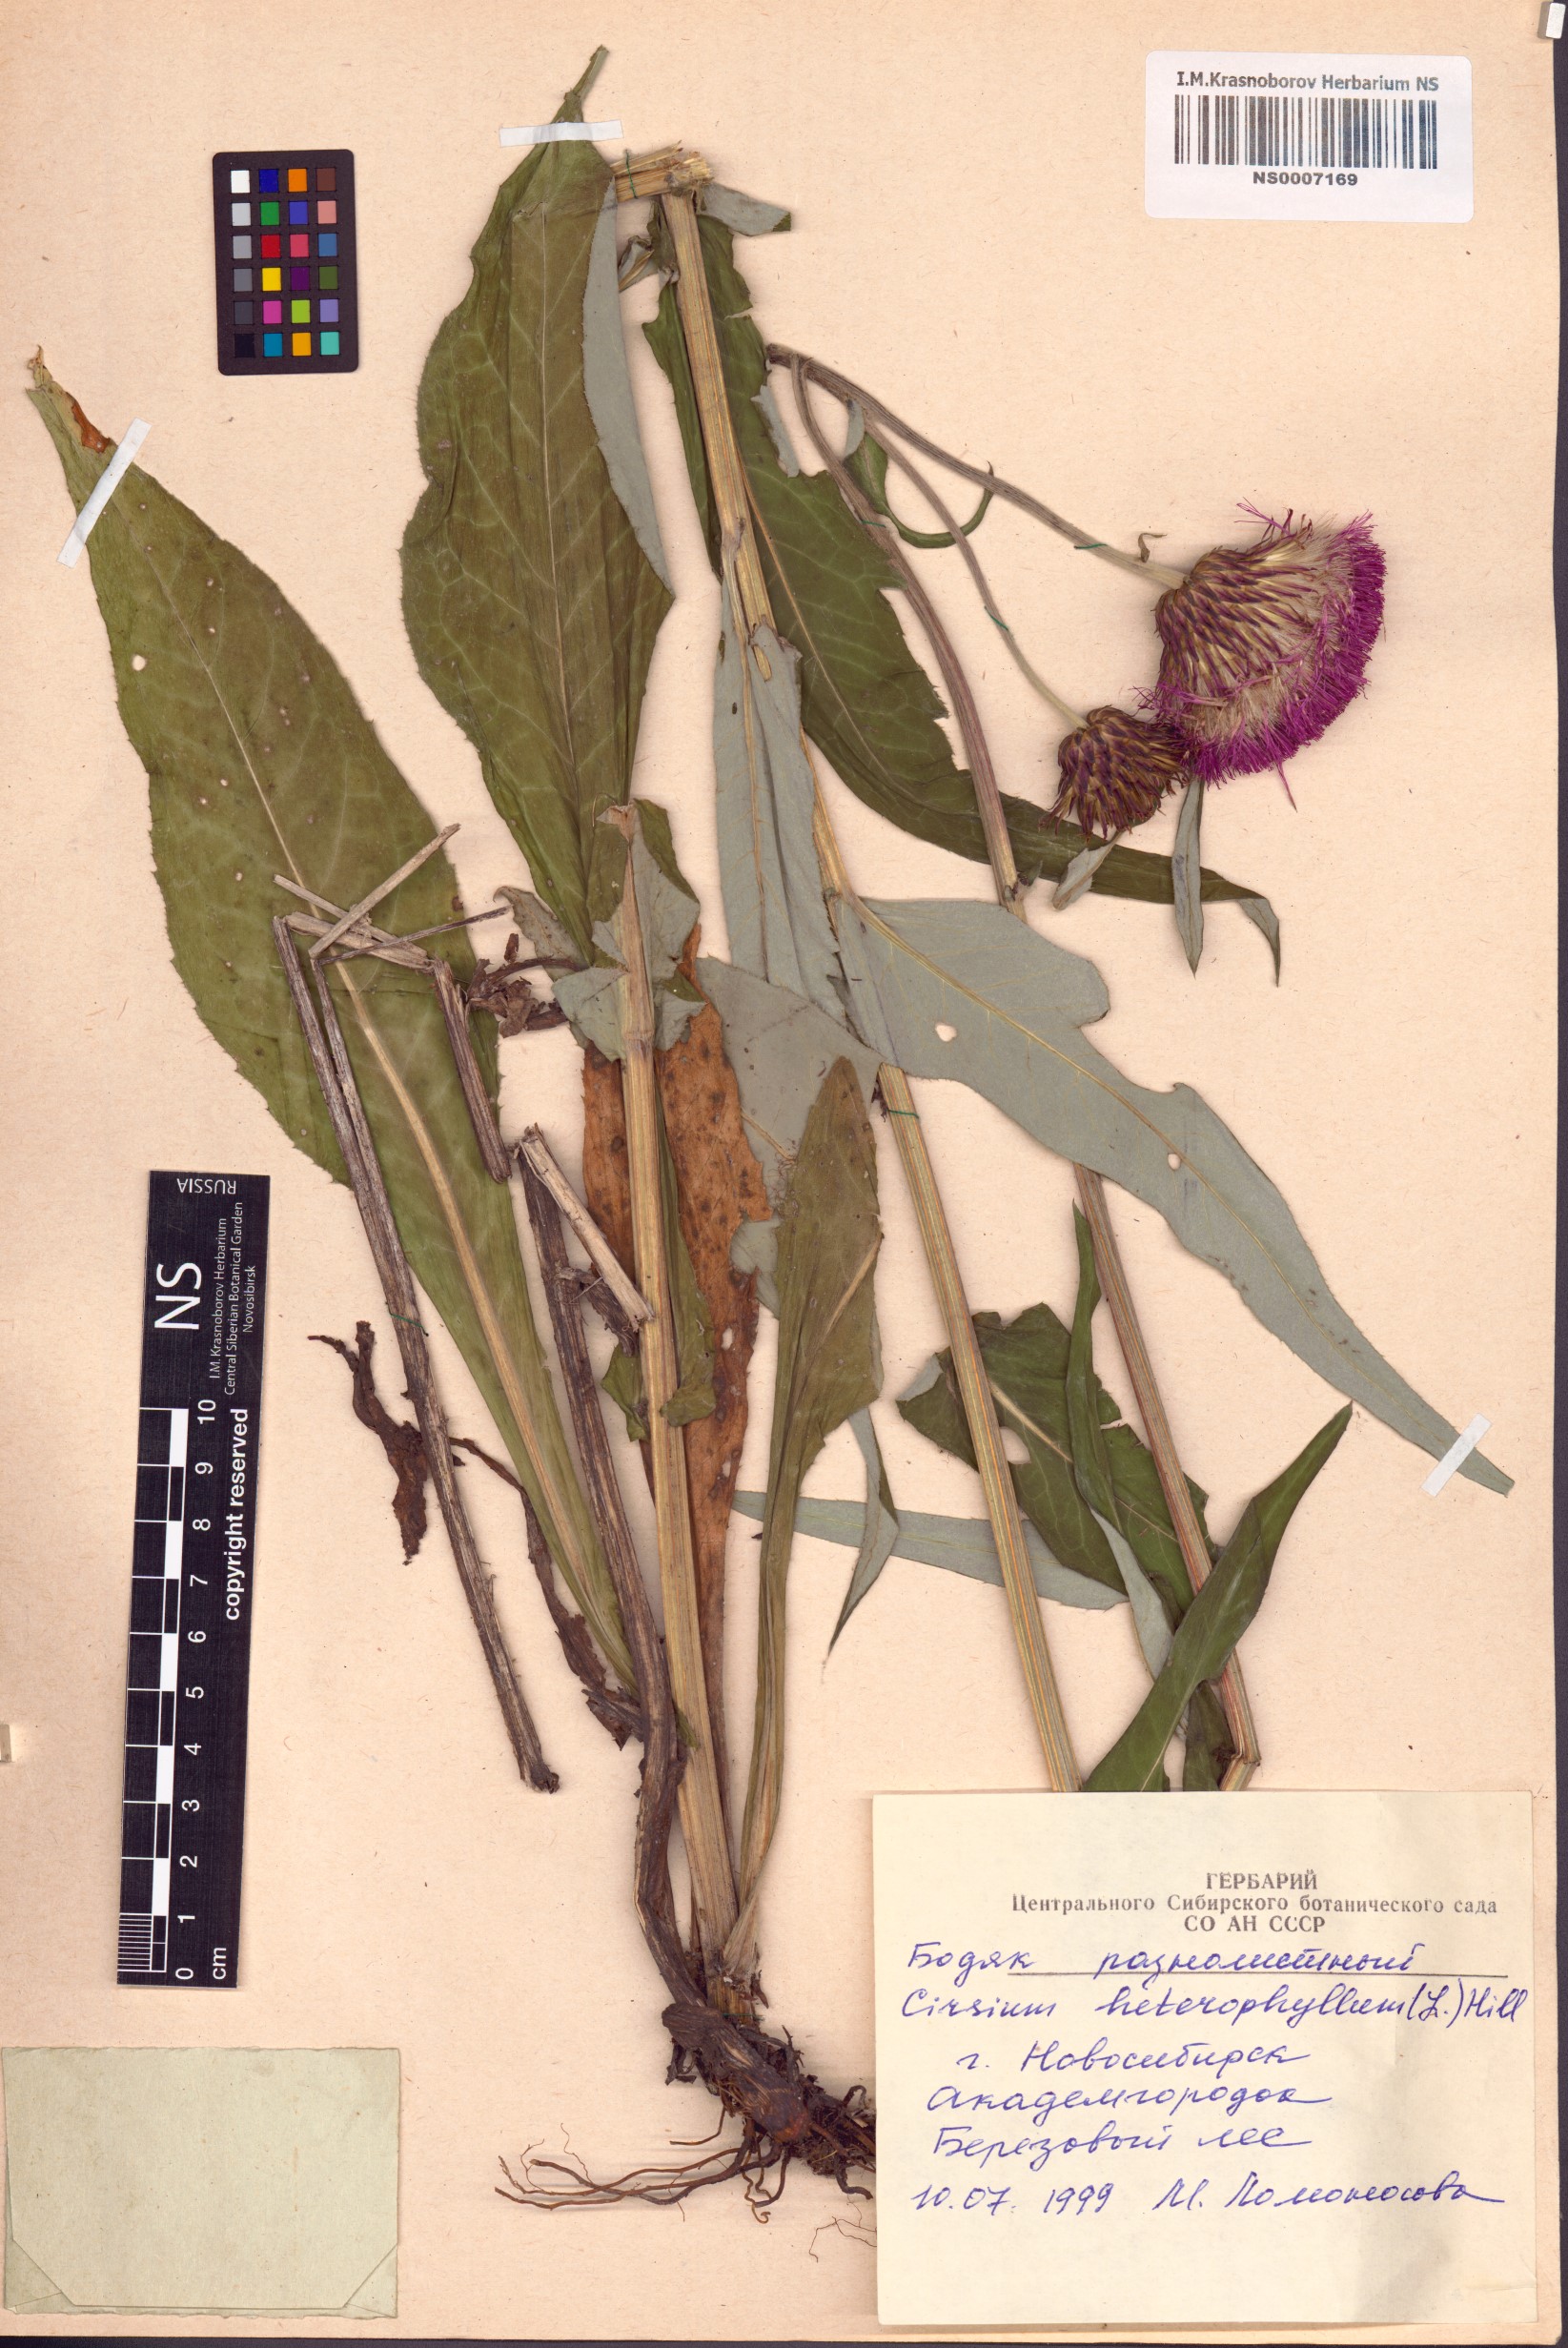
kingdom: Plantae
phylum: Tracheophyta
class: Magnoliopsida
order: Asterales
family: Asteraceae
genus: Cirsium
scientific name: Cirsium heterophyllum
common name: Melancholy thistle
